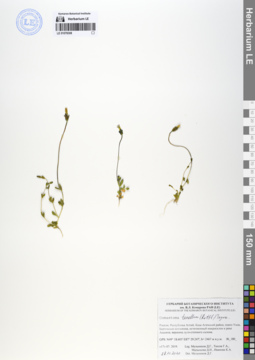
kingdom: Plantae
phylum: Tracheophyta
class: Magnoliopsida
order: Gentianales
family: Gentianaceae
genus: Comastoma
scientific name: Comastoma tenellum
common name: Dane's dwarf gentian
